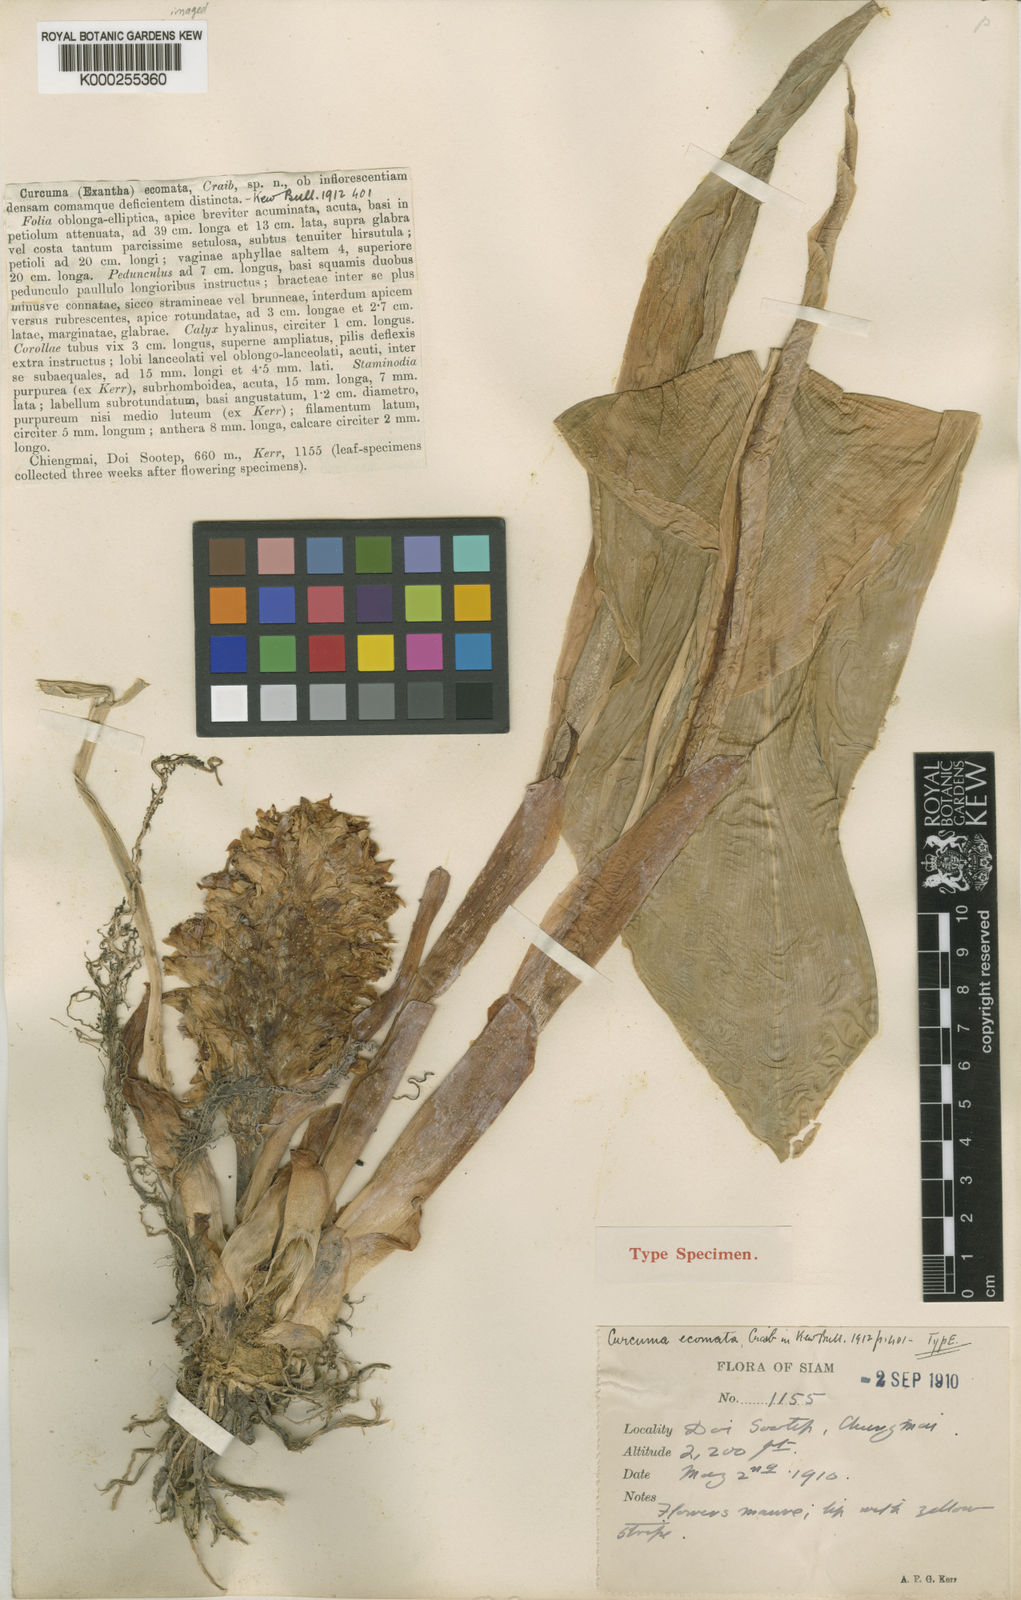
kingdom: Plantae
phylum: Tracheophyta
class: Liliopsida
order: Zingiberales
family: Zingiberaceae
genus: Curcuma
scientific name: Curcuma ecomata
